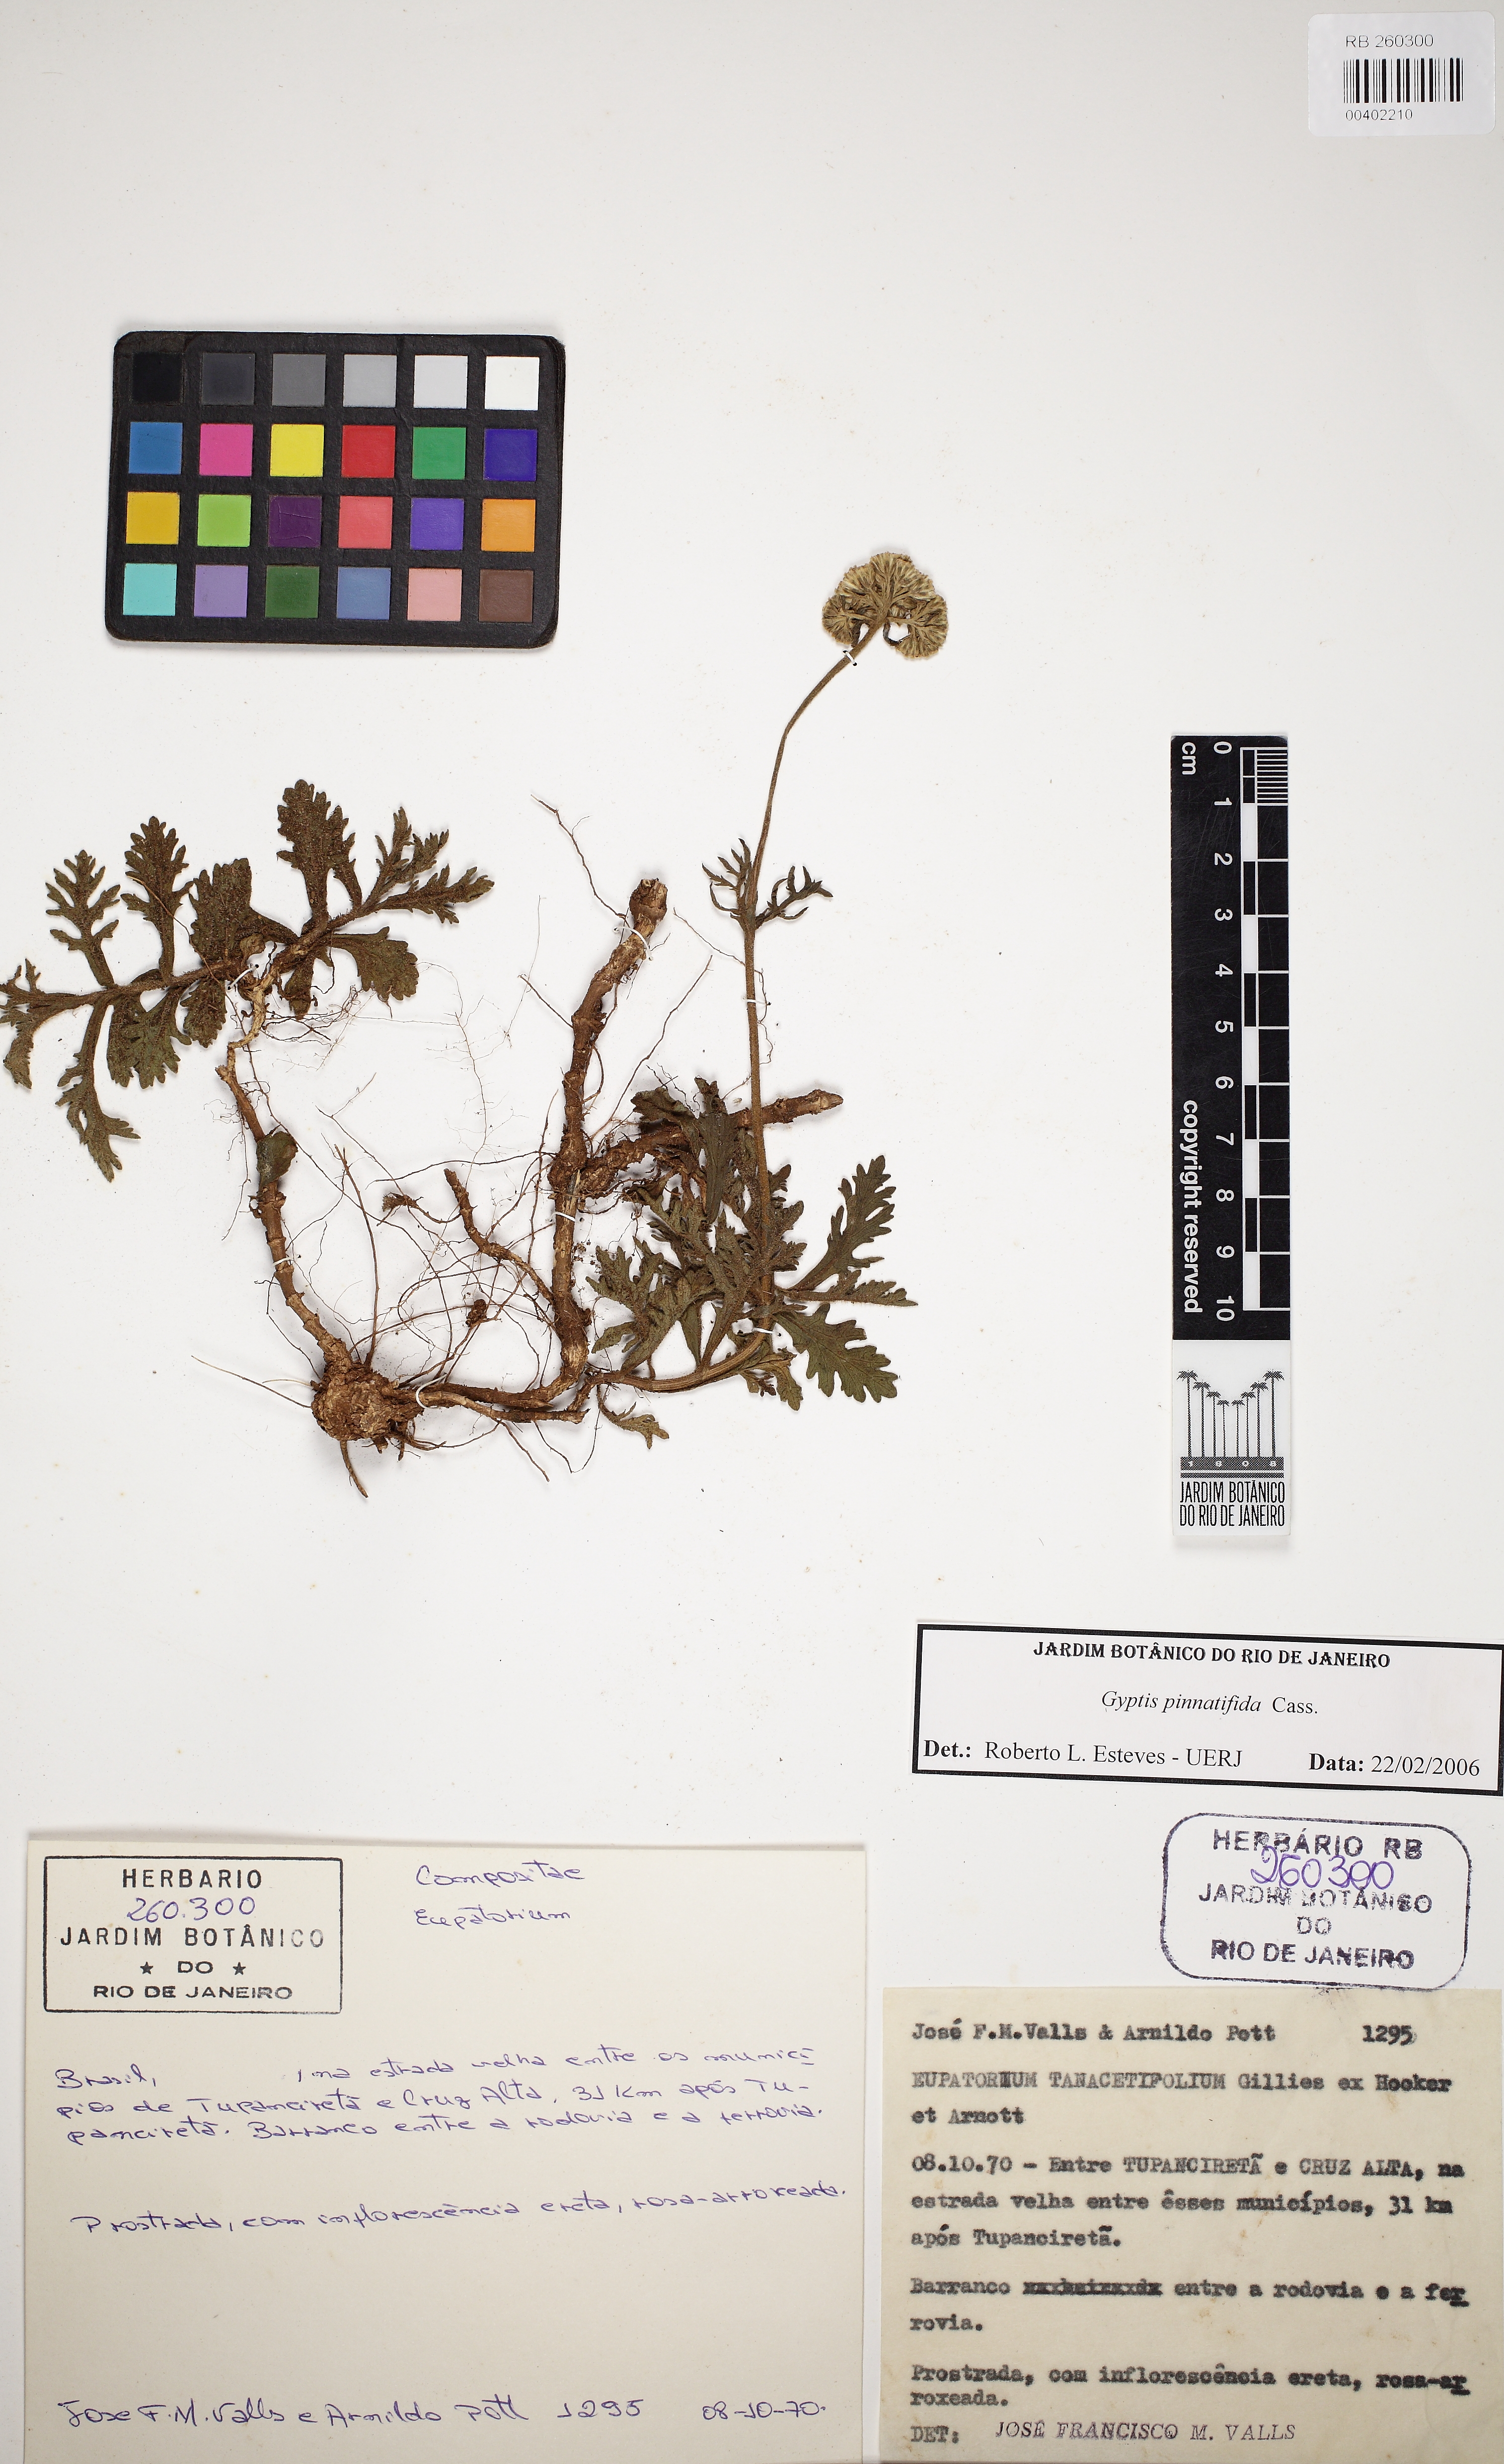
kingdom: Plantae
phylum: Tracheophyta
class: Magnoliopsida
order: Asterales
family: Asteraceae
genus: Gyptis
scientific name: Gyptis pinnatifida
